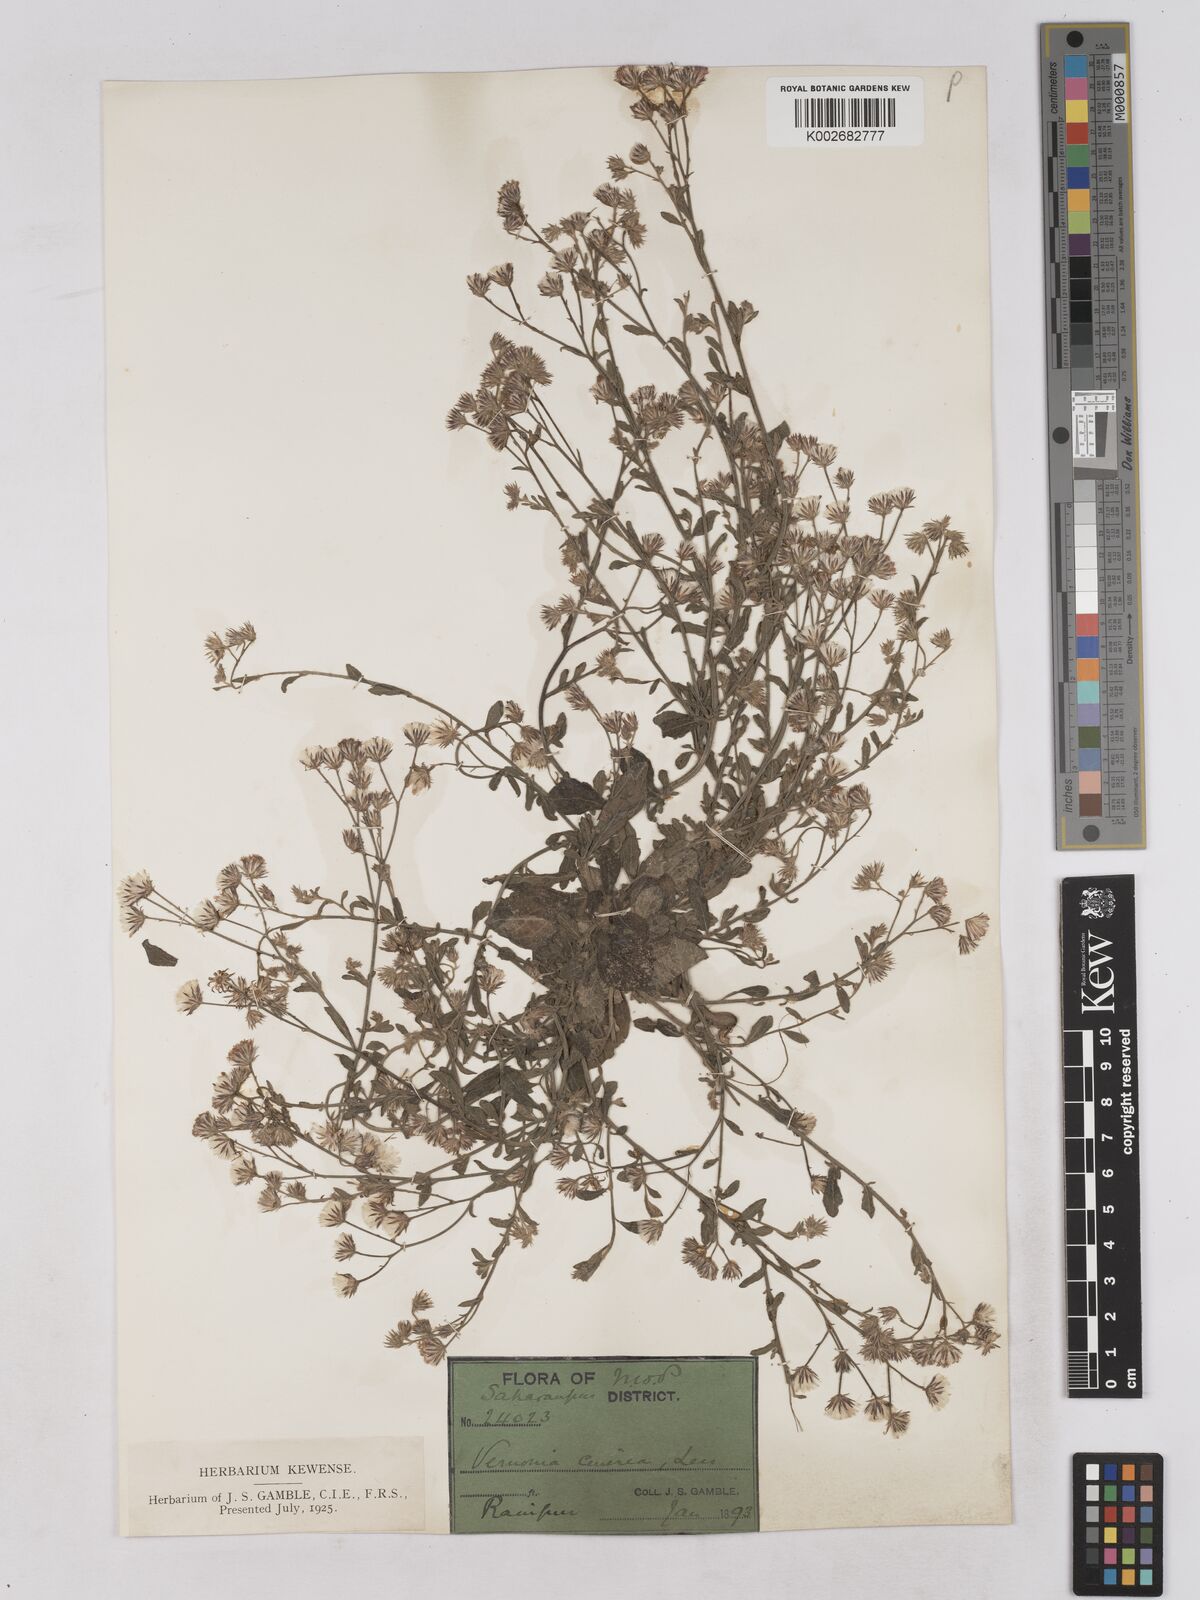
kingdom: Plantae
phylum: Tracheophyta
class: Magnoliopsida
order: Asterales
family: Asteraceae
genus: Cyanthillium
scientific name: Cyanthillium cinereum
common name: Little ironweed
